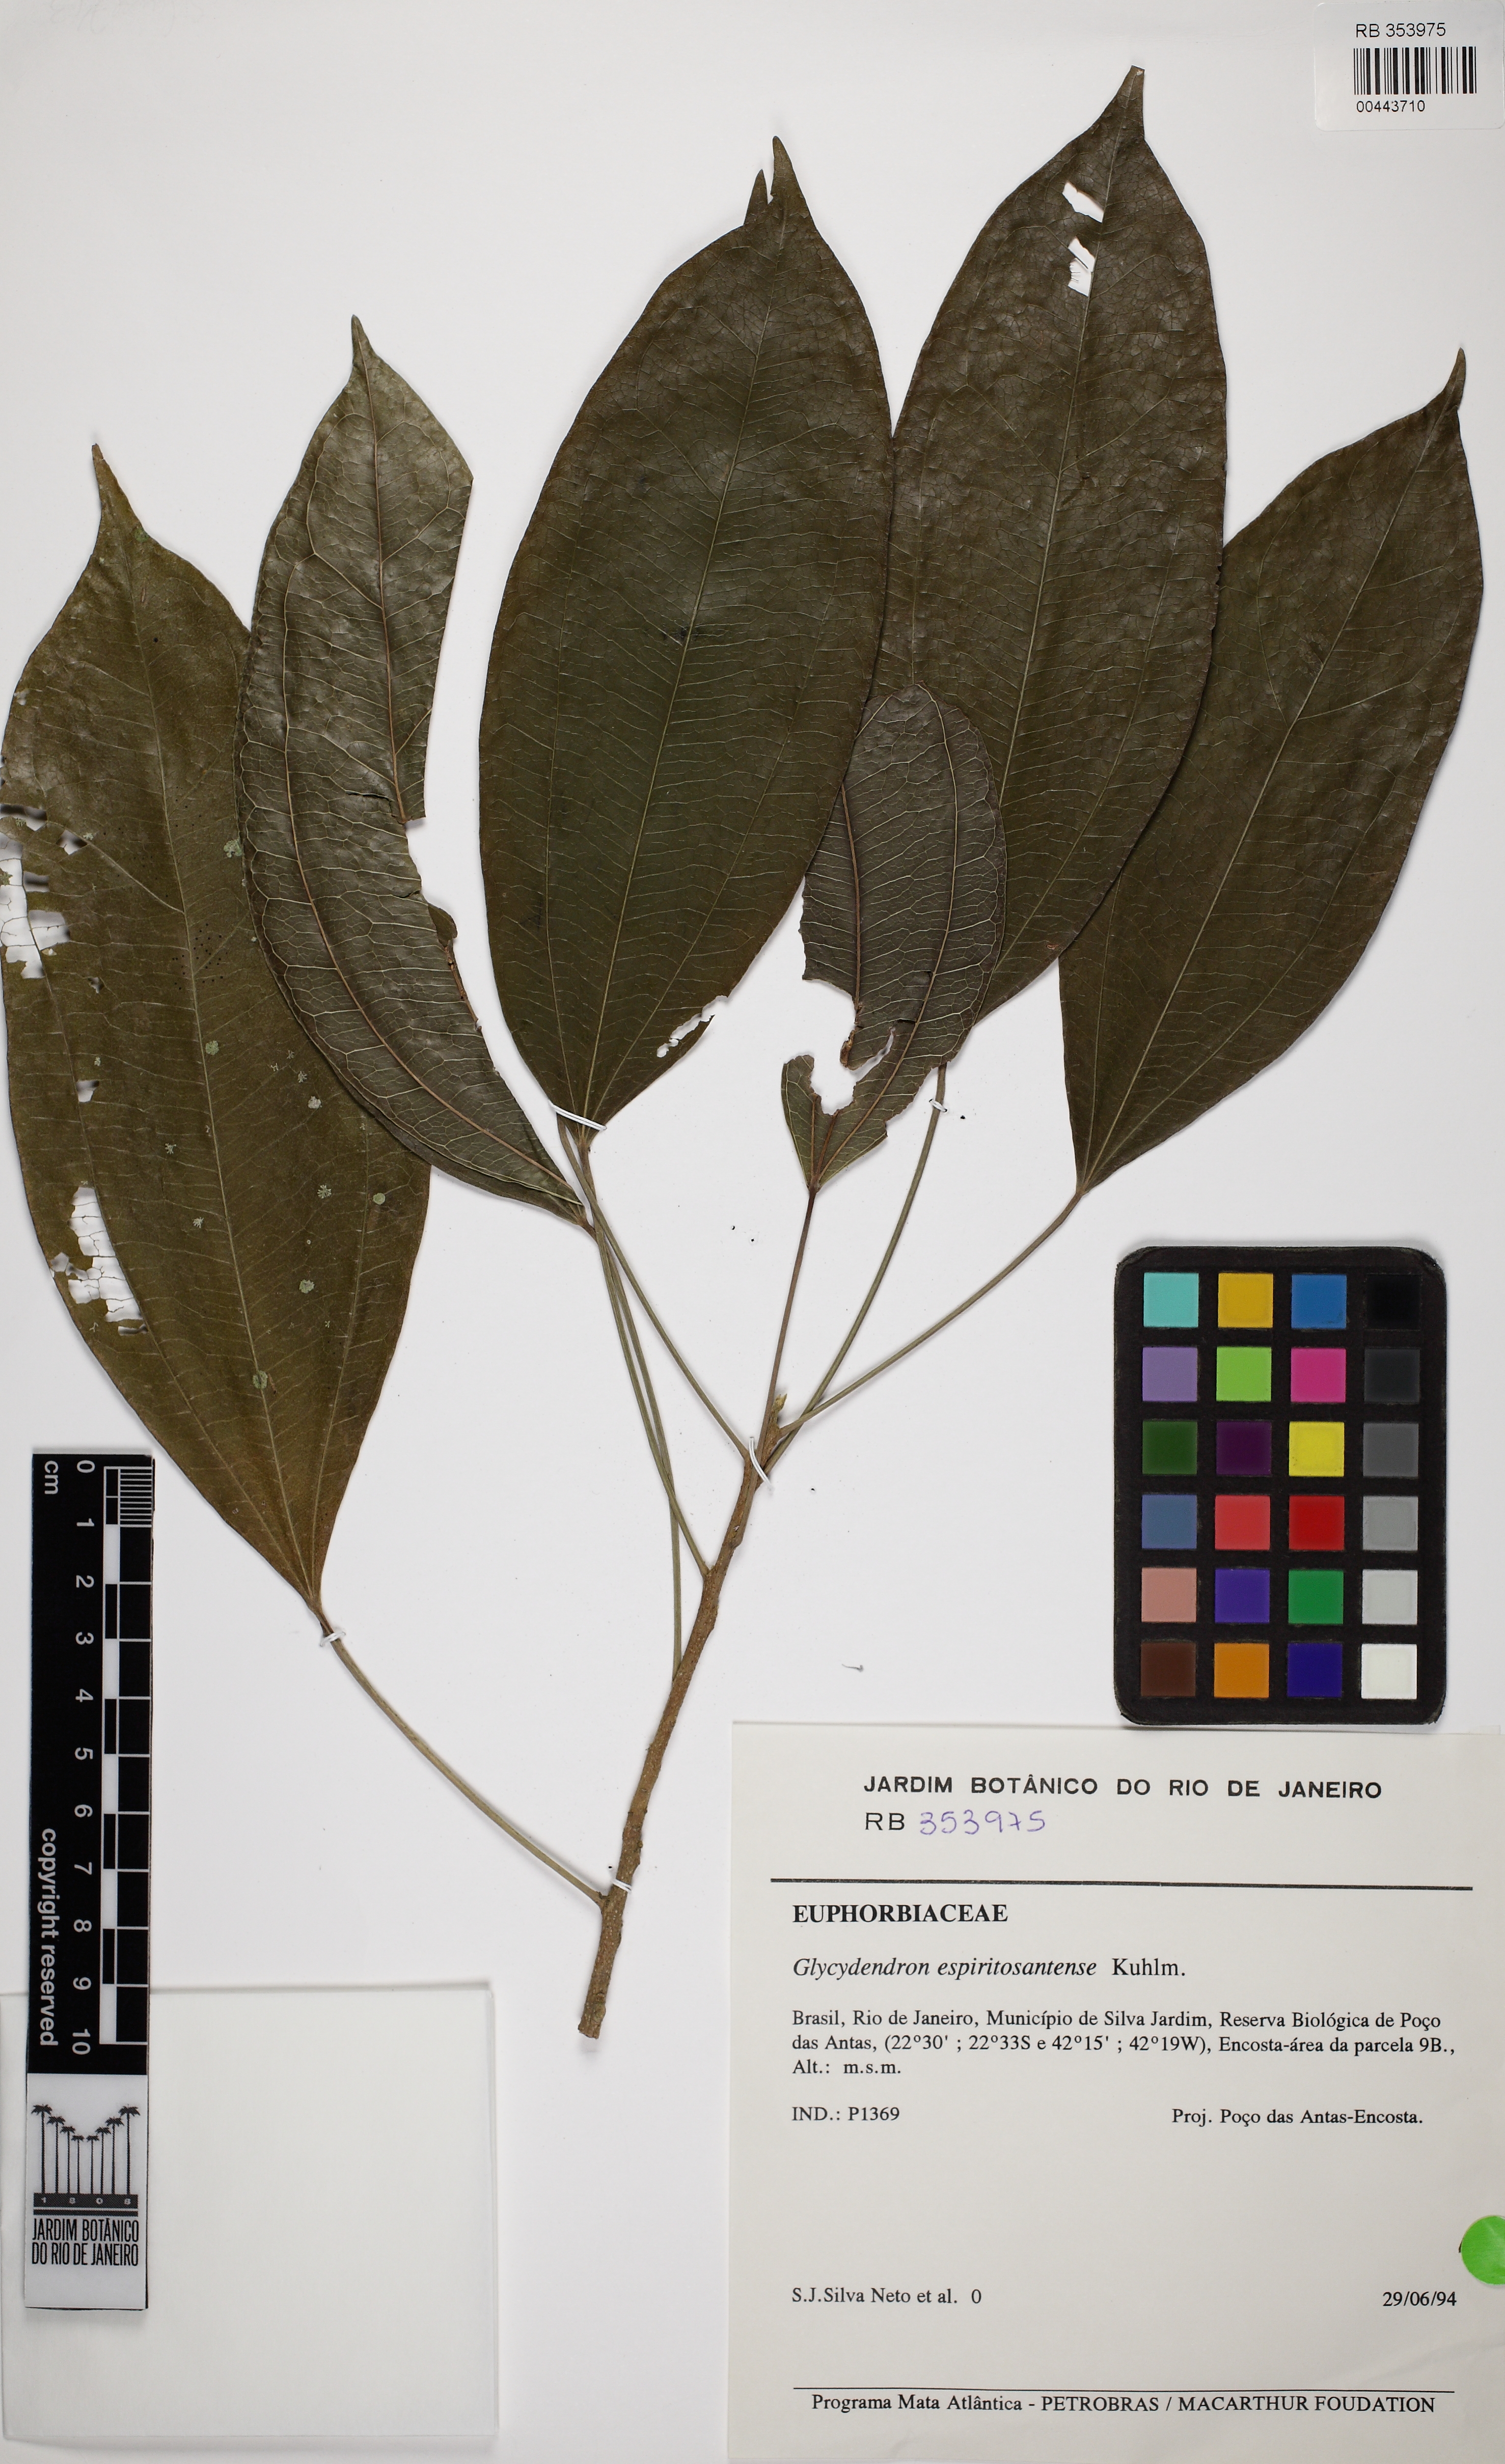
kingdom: Plantae
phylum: Tracheophyta
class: Magnoliopsida
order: Malpighiales
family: Euphorbiaceae
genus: Glycydendron
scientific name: Glycydendron espiritosantense
